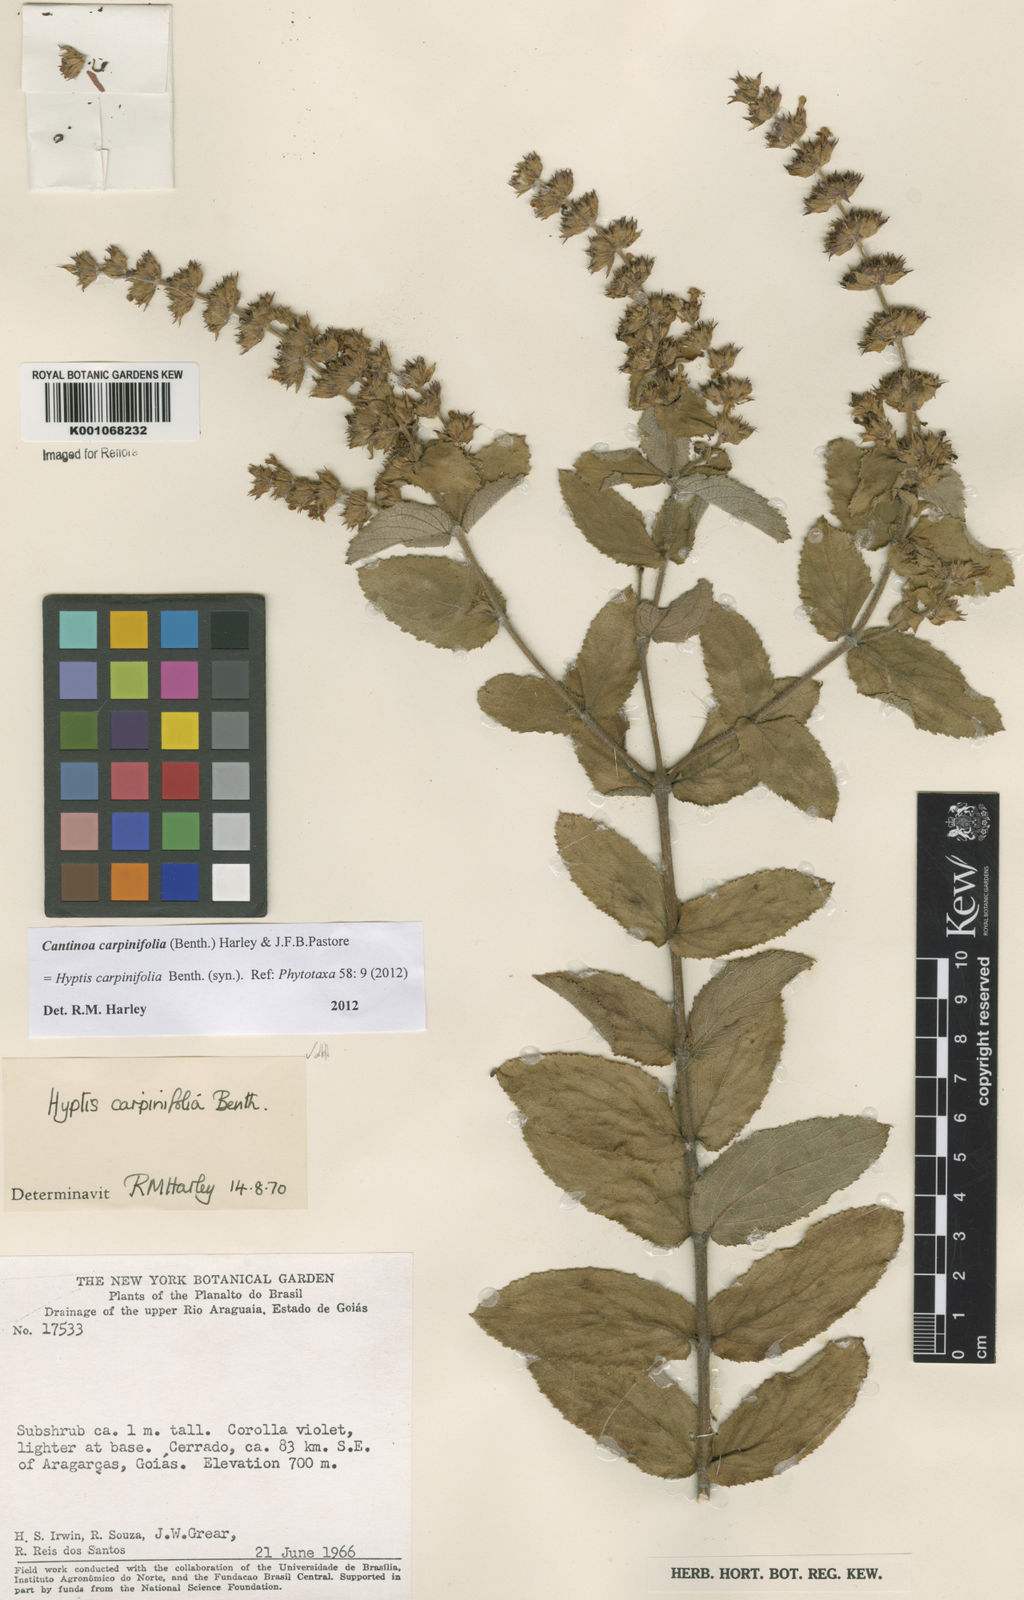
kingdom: Plantae
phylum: Tracheophyta
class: Magnoliopsida
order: Lamiales
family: Lamiaceae
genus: Cantinoa
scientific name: Cantinoa carpinifolia
